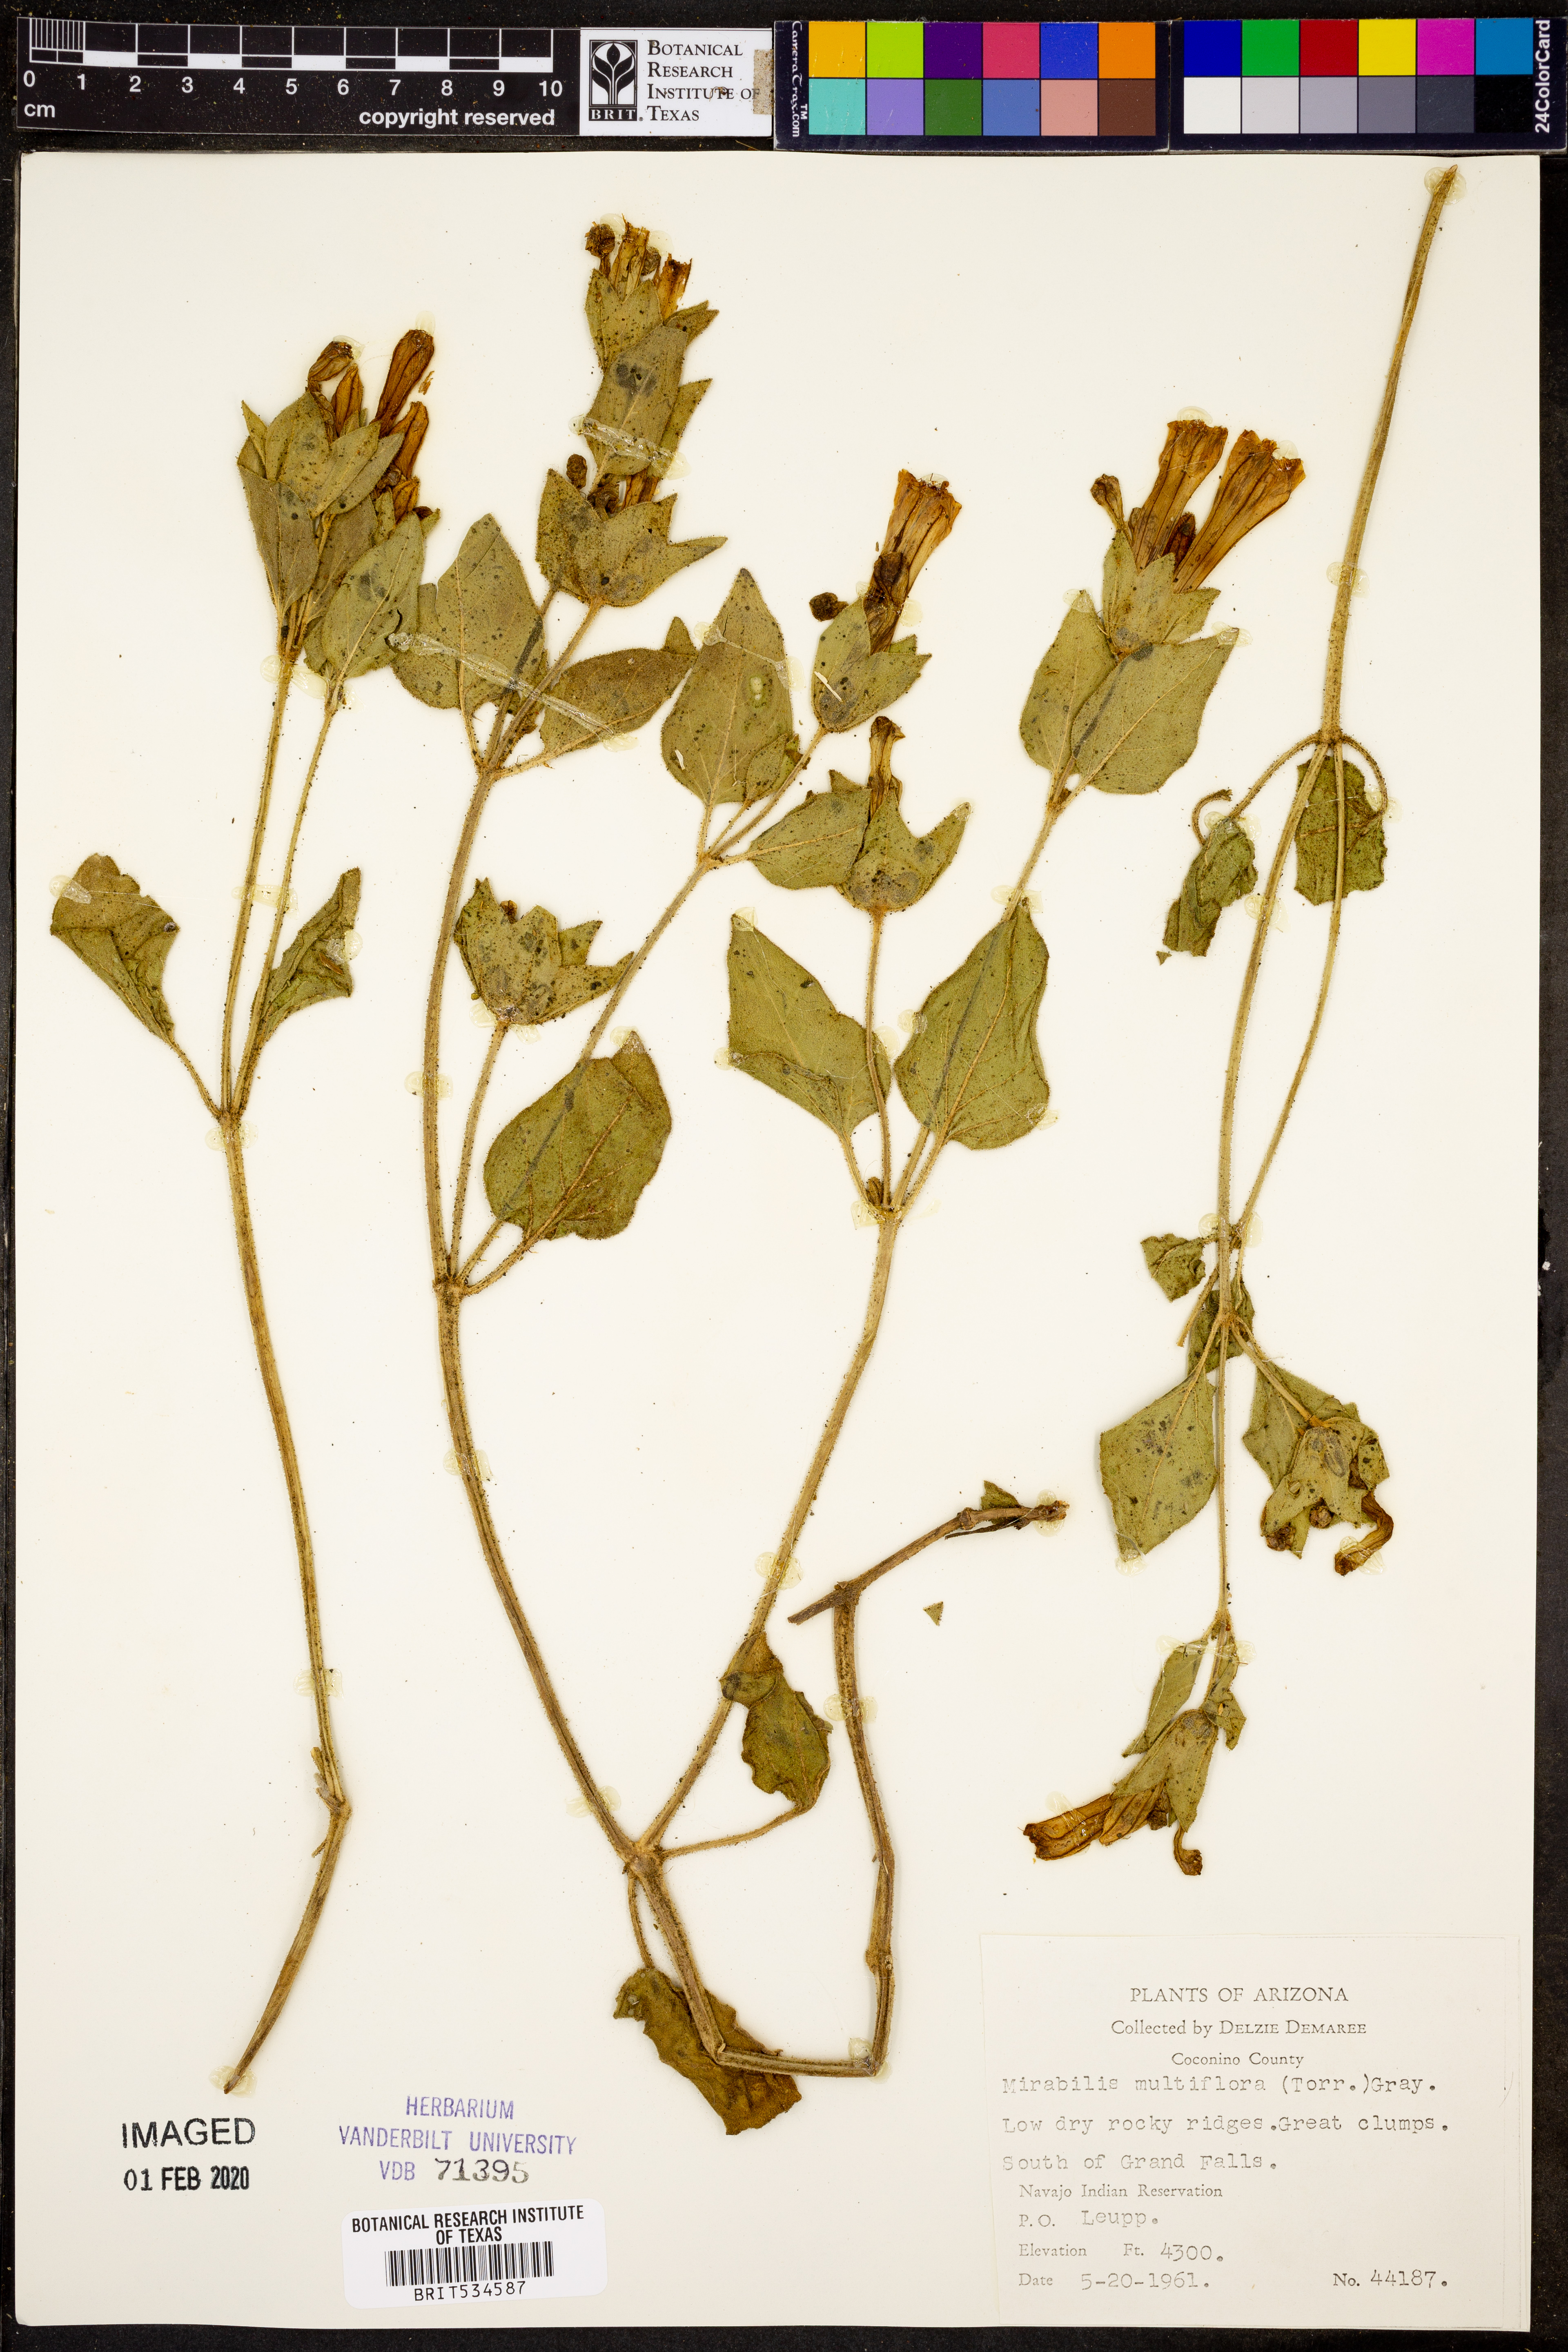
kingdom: Plantae
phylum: Tracheophyta
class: Magnoliopsida
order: Caryophyllales
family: Nyctaginaceae
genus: Mirabilis
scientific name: Mirabilis multiflora
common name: Froebel's four-o'clock
